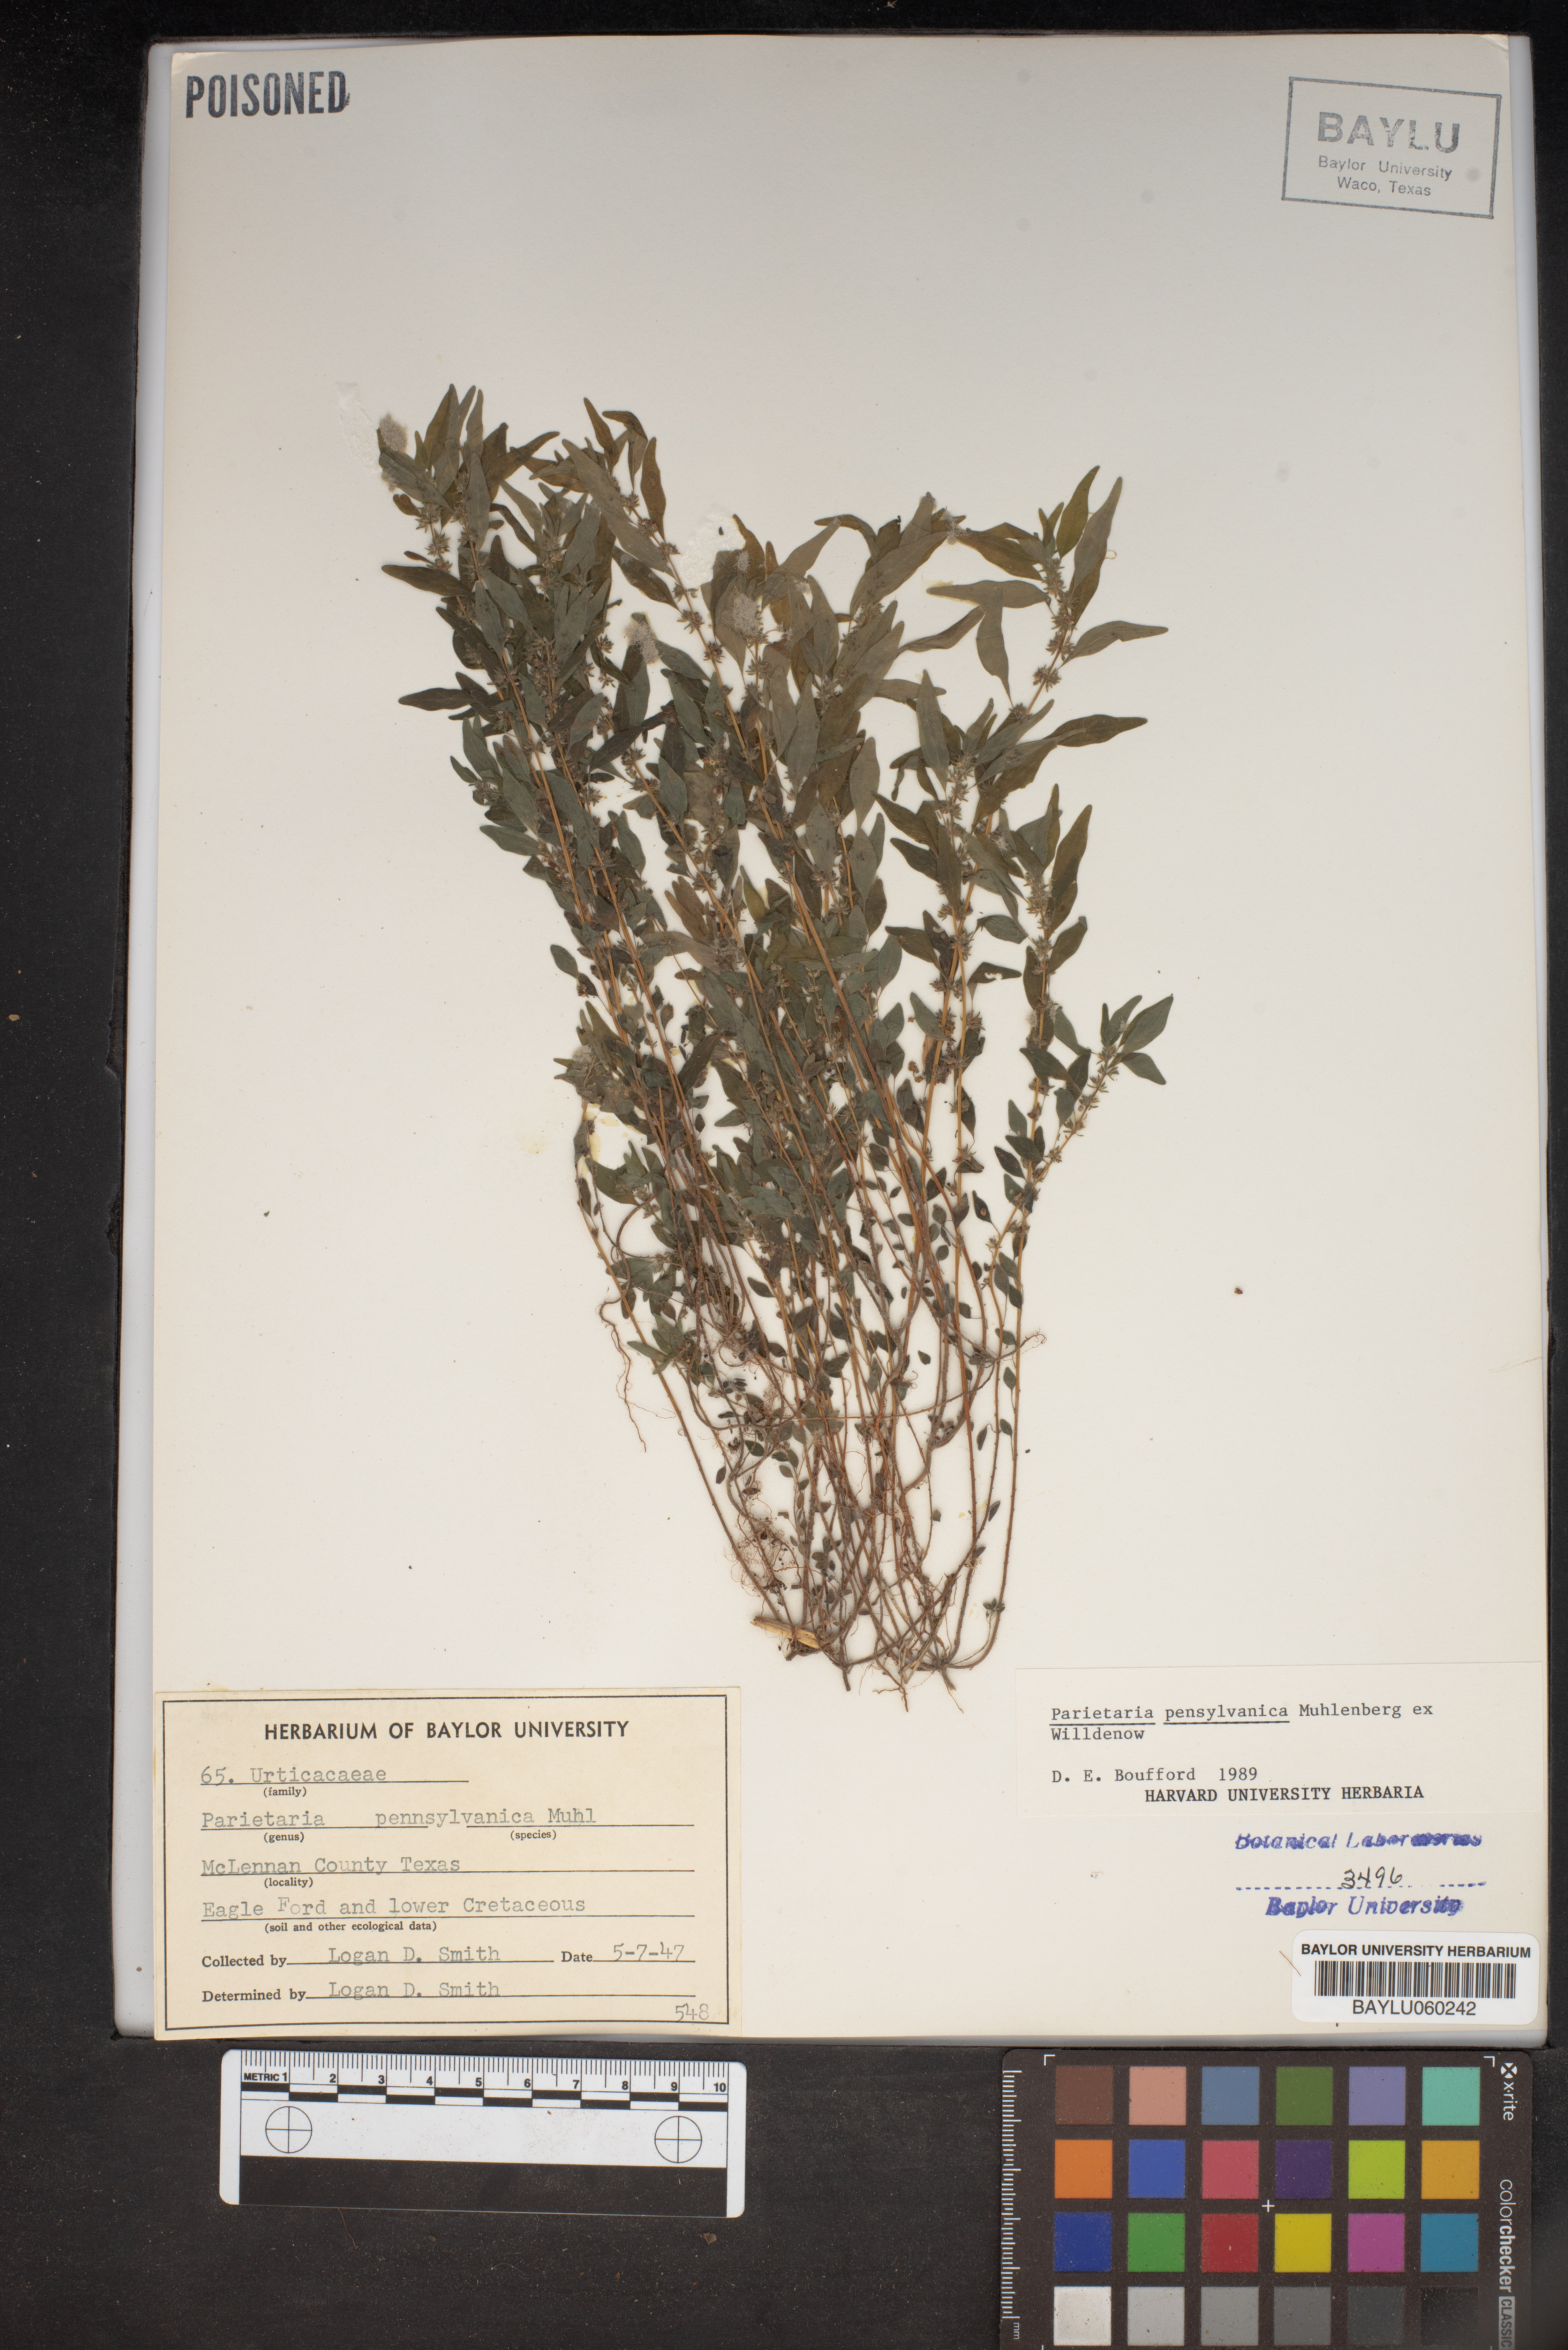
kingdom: Plantae
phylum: Tracheophyta
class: Magnoliopsida
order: Rosales
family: Urticaceae
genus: Parietaria
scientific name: Parietaria pensylvanica
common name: Pennsylvania pellitory
